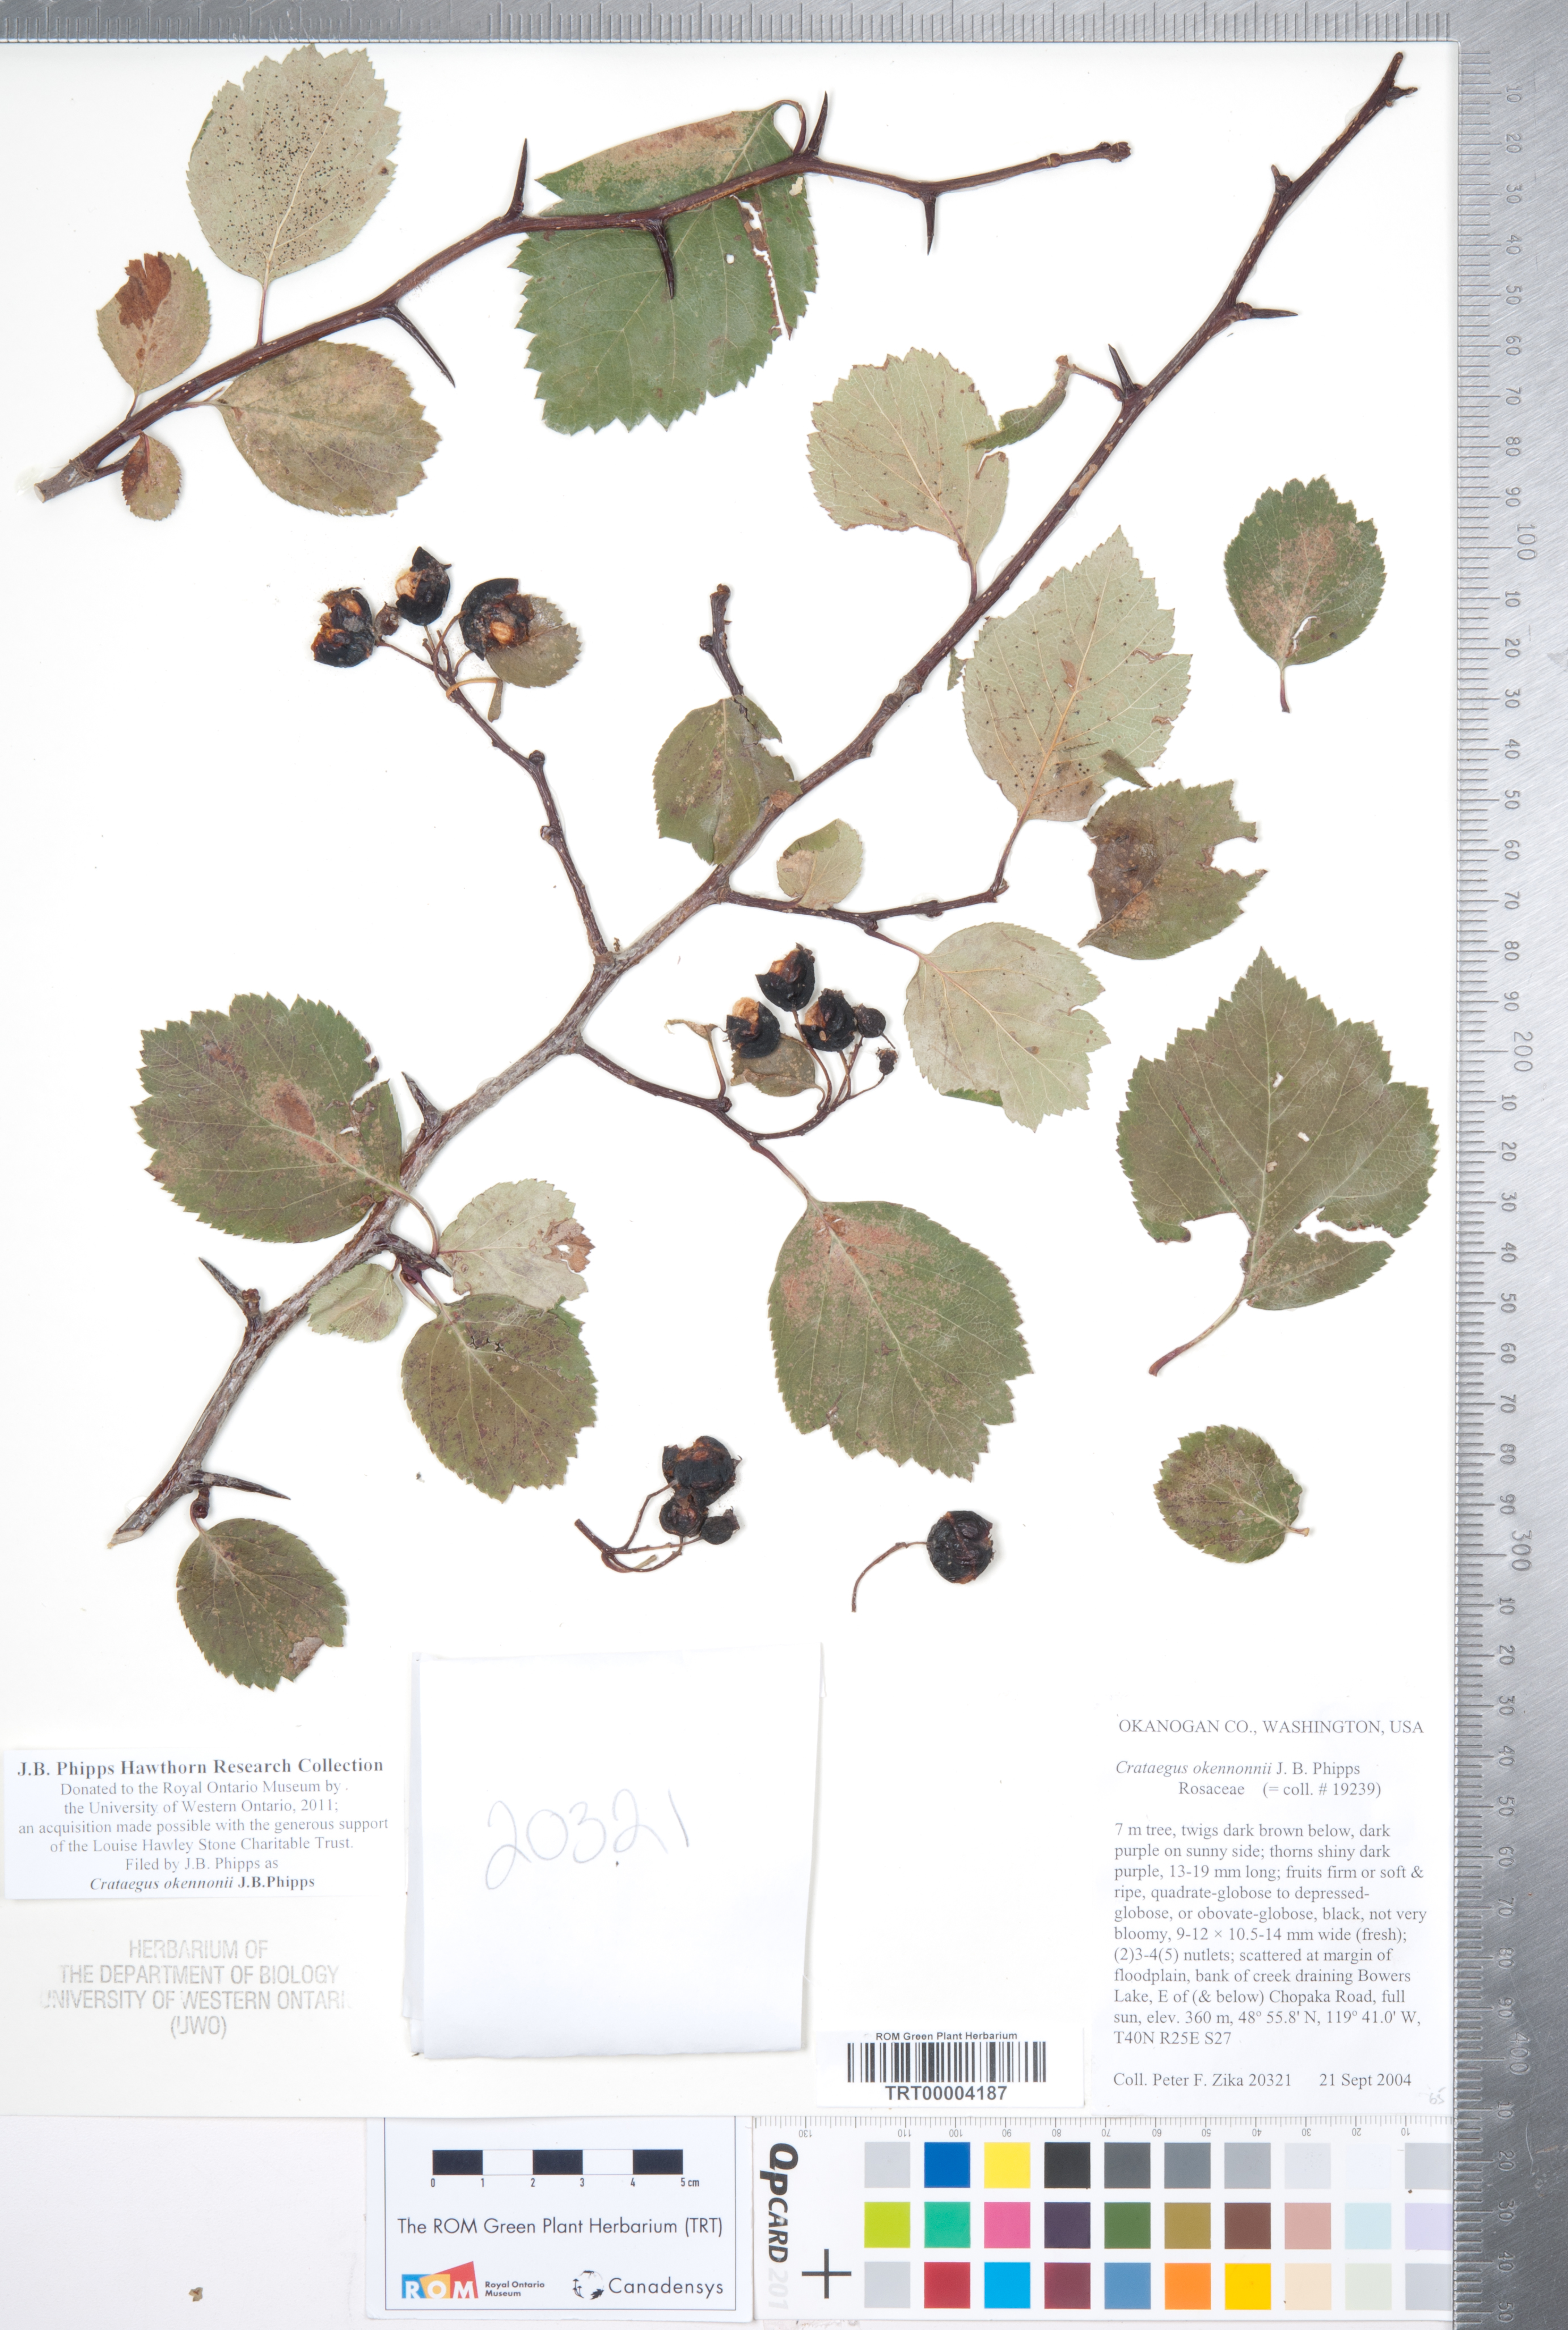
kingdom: Plantae
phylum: Tracheophyta
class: Magnoliopsida
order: Rosales
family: Rosaceae
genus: Crataegus
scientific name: Crataegus okennonii
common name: O'kennon's hawthorn
